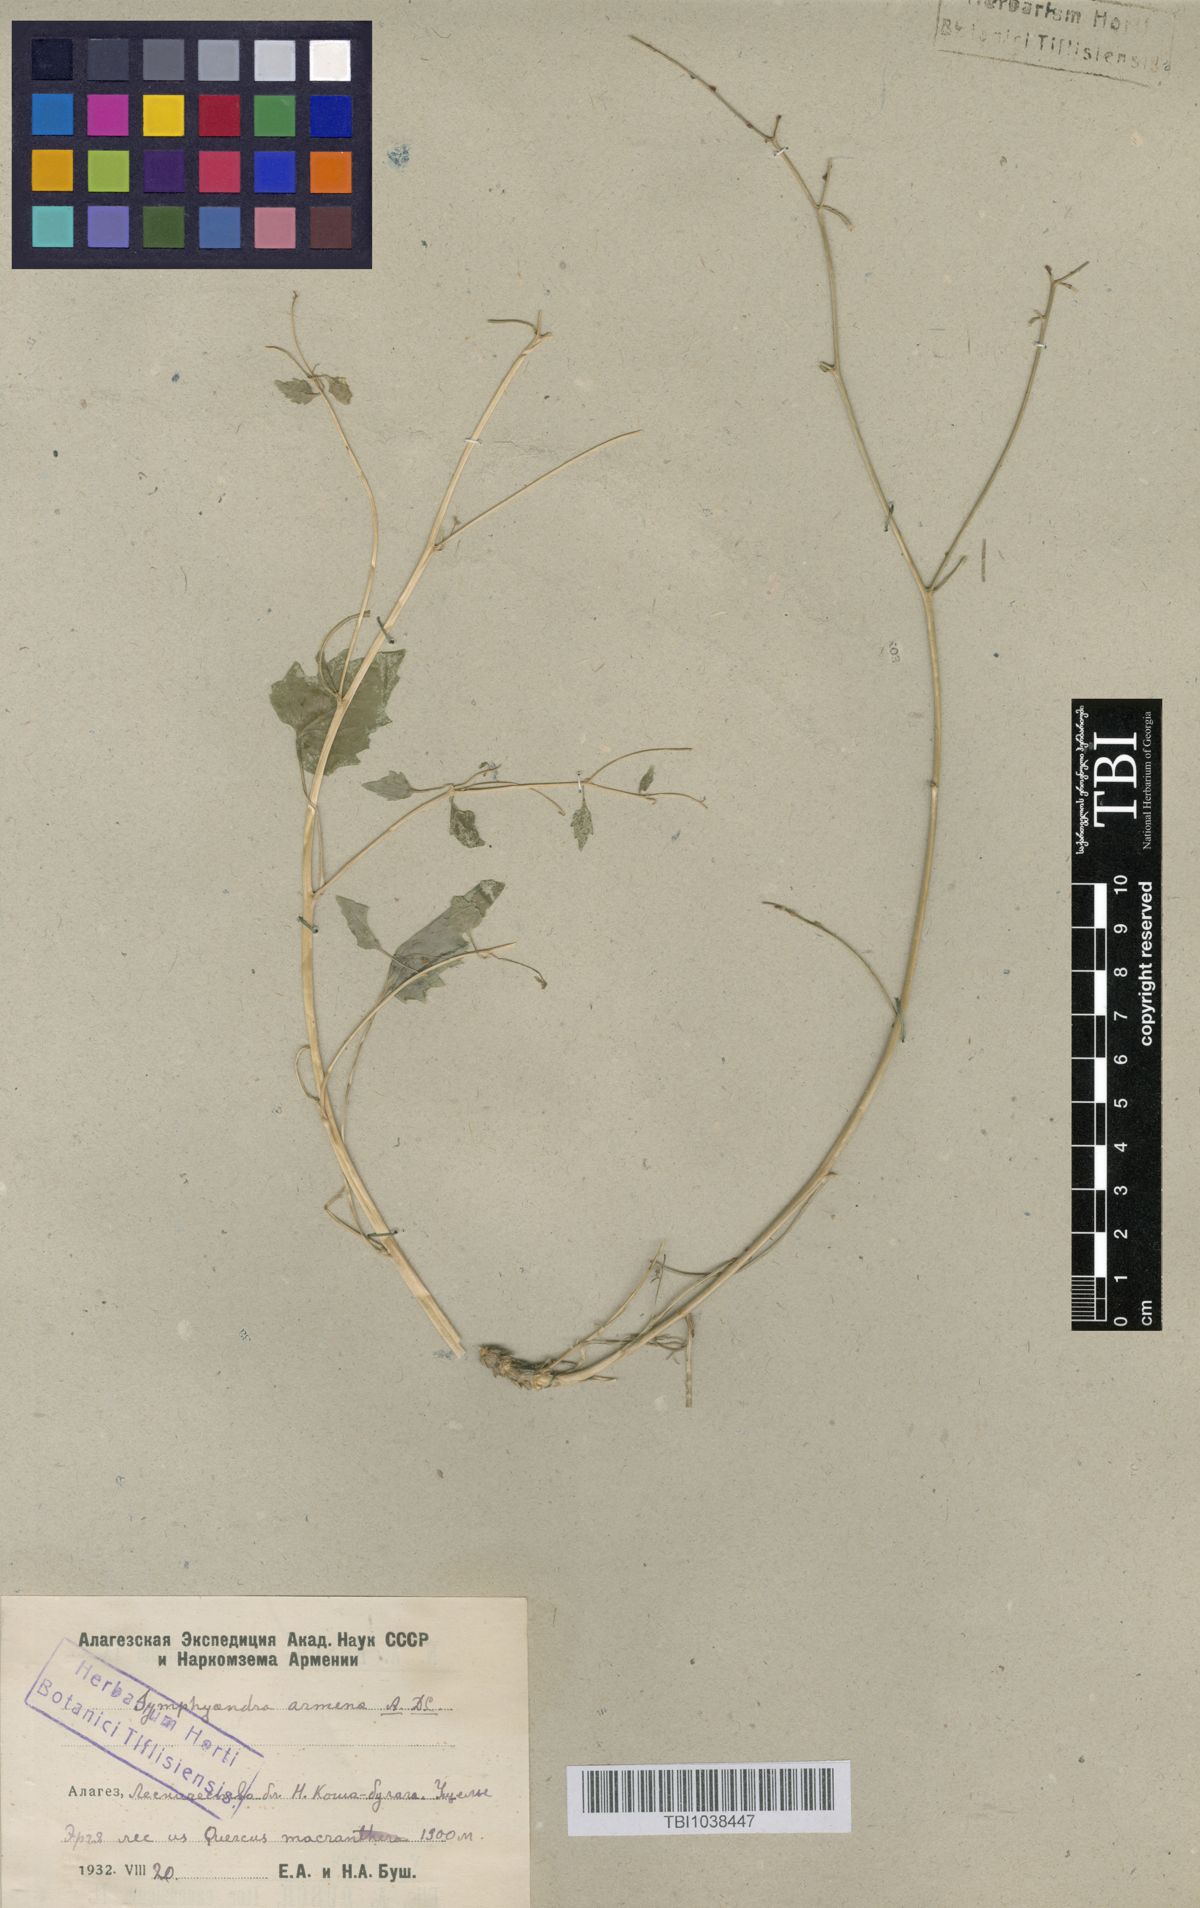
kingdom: Plantae
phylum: Tracheophyta
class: Magnoliopsida
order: Asterales
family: Campanulaceae
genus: Campanula
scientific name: Campanula armena
